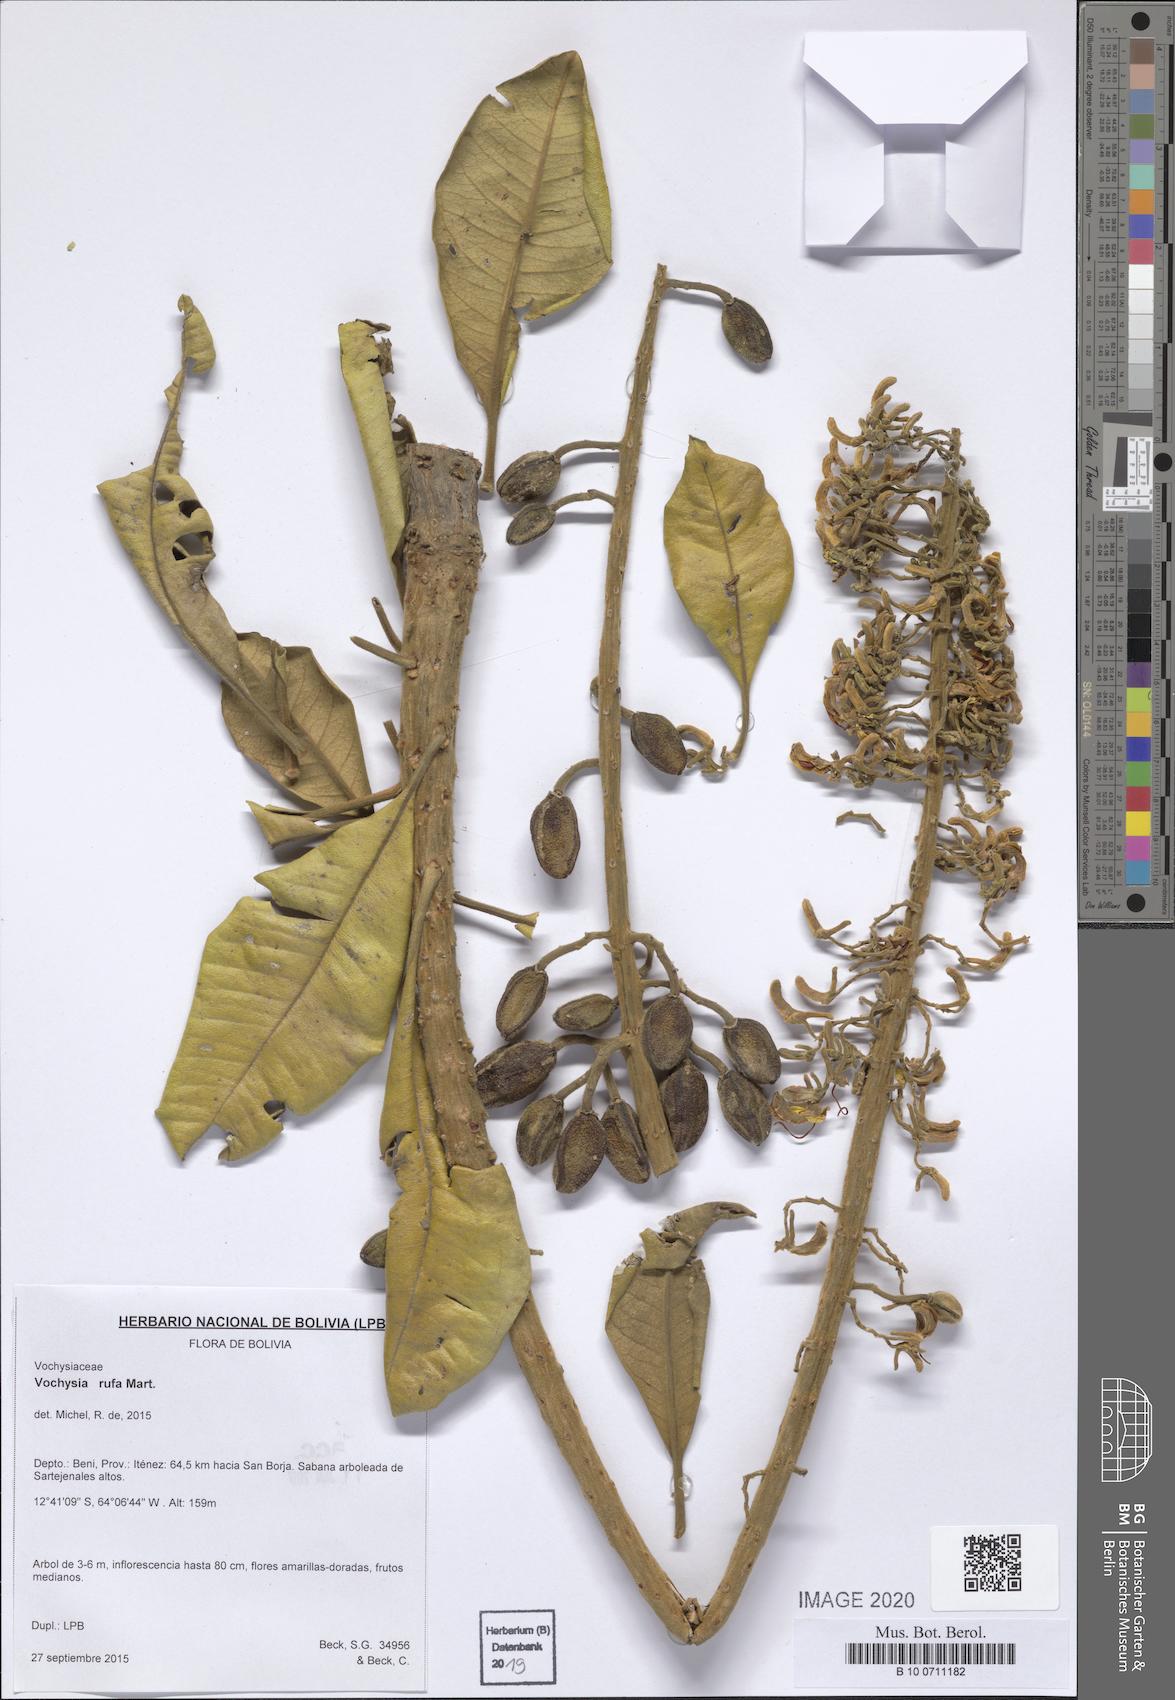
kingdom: Plantae
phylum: Tracheophyta
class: Magnoliopsida
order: Myrtales
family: Vochysiaceae
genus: Vochysia
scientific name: Vochysia rufa
